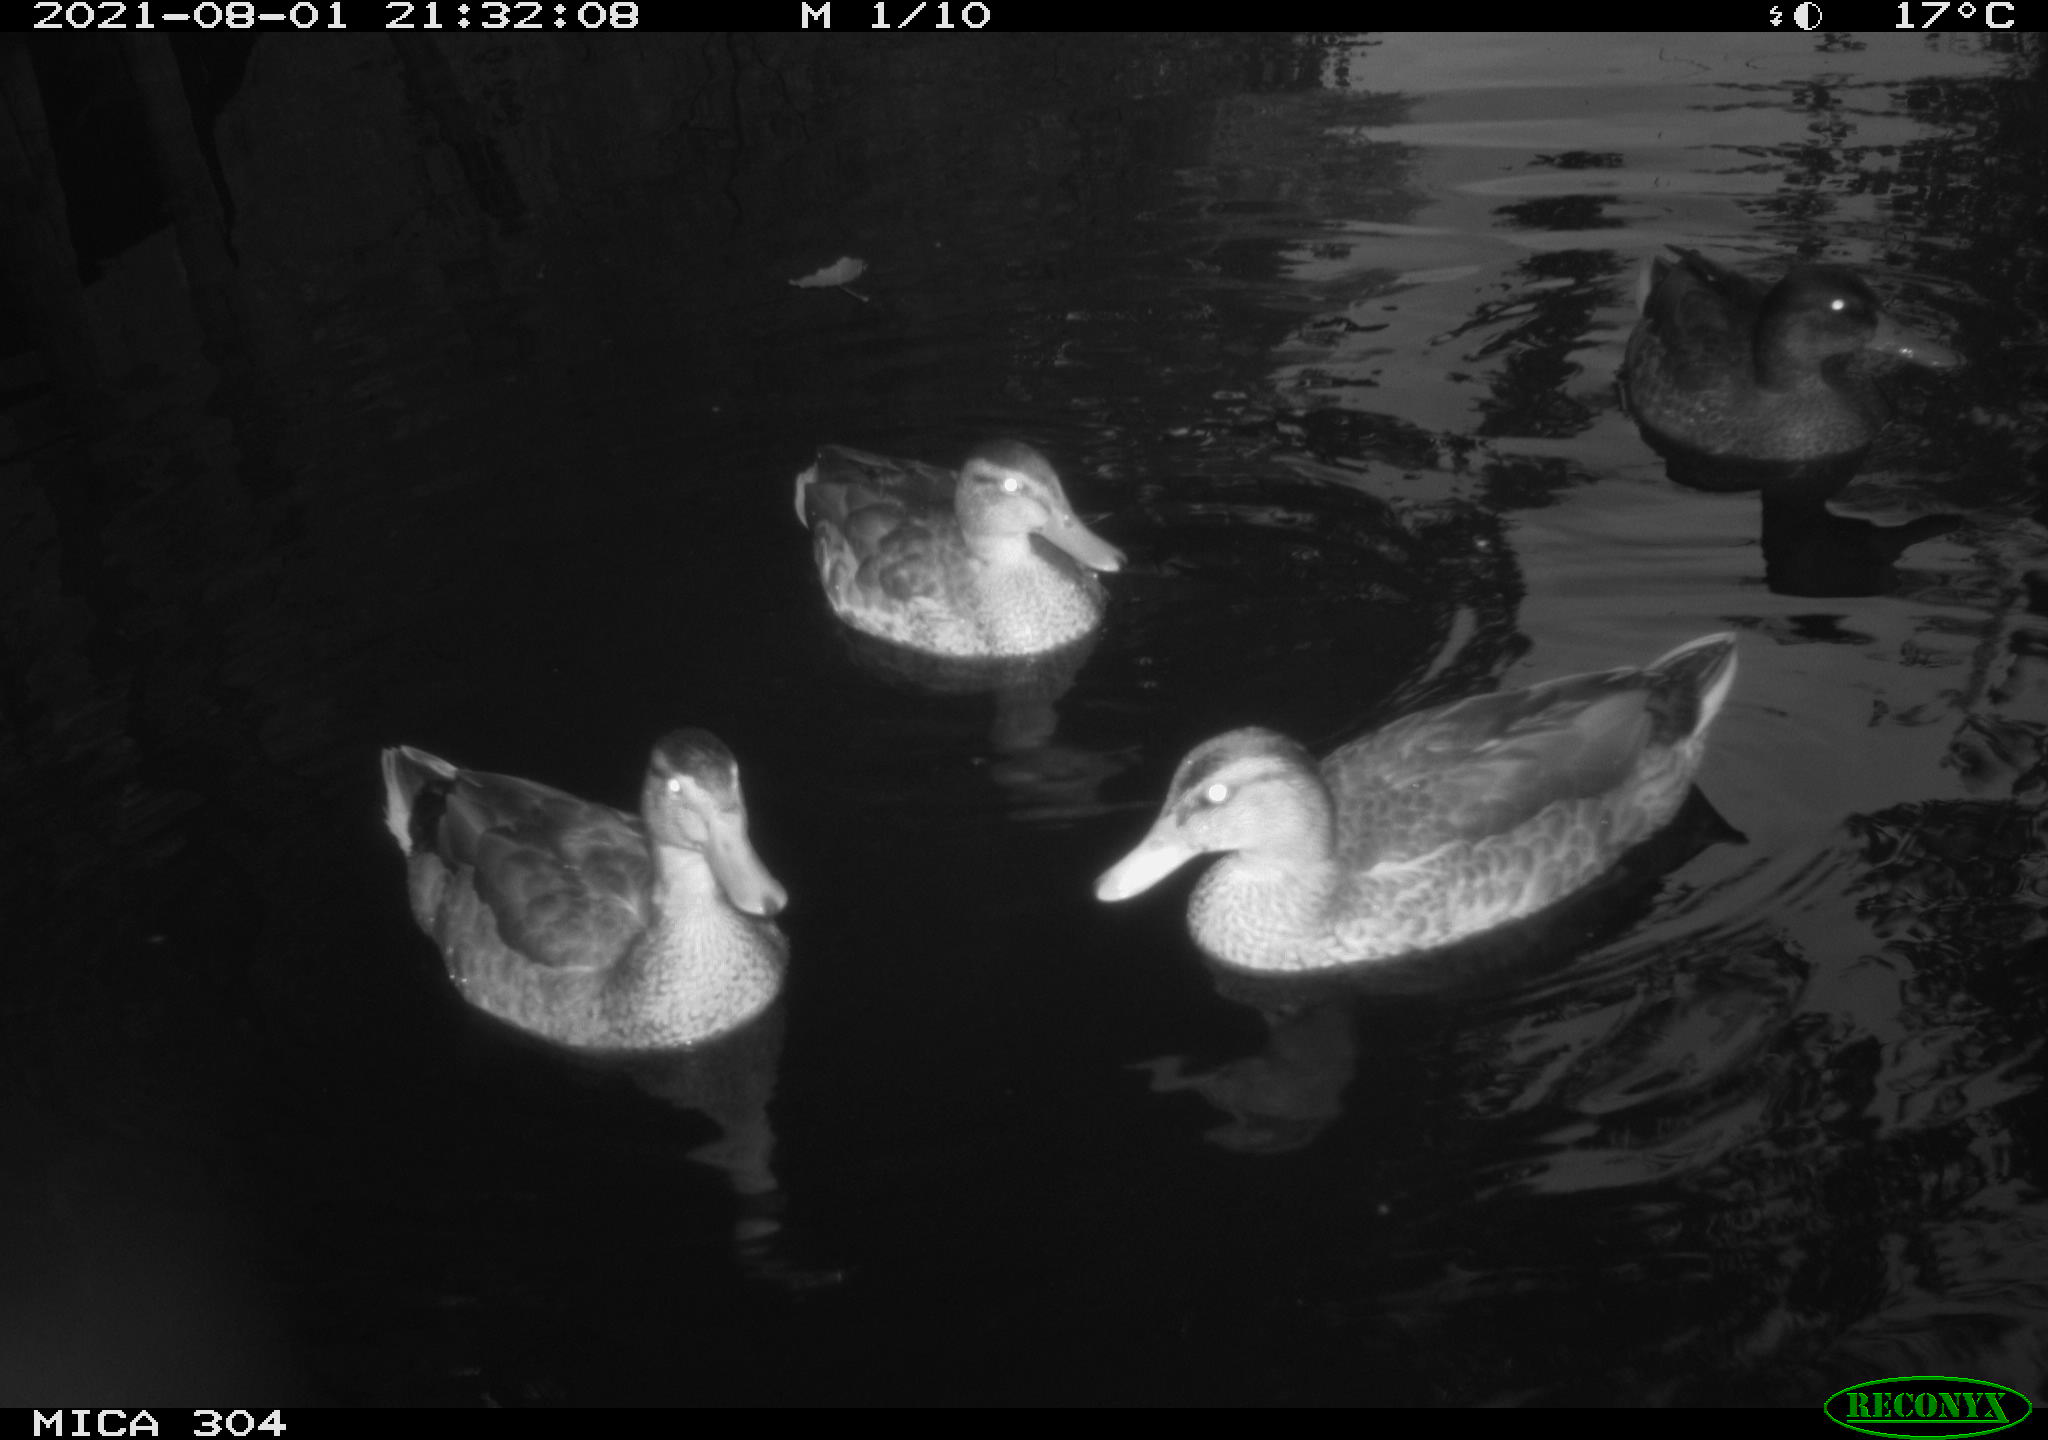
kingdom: Animalia
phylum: Chordata
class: Aves
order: Anseriformes
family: Anatidae
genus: Anas
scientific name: Anas platyrhynchos
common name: Mallard
